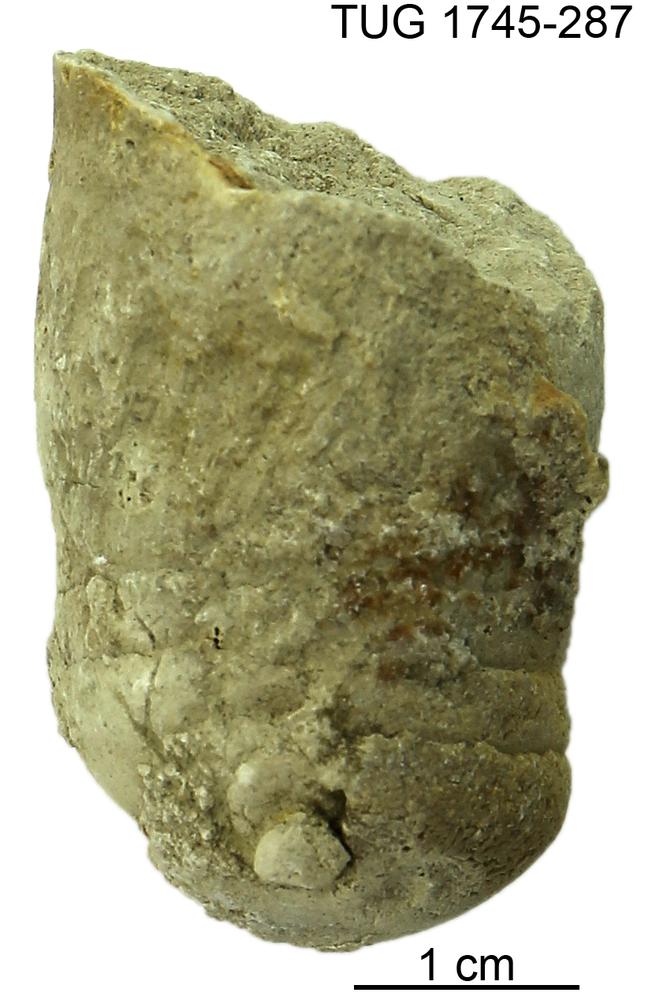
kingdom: Animalia
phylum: Mollusca
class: Cephalopoda
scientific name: Cephalopoda
